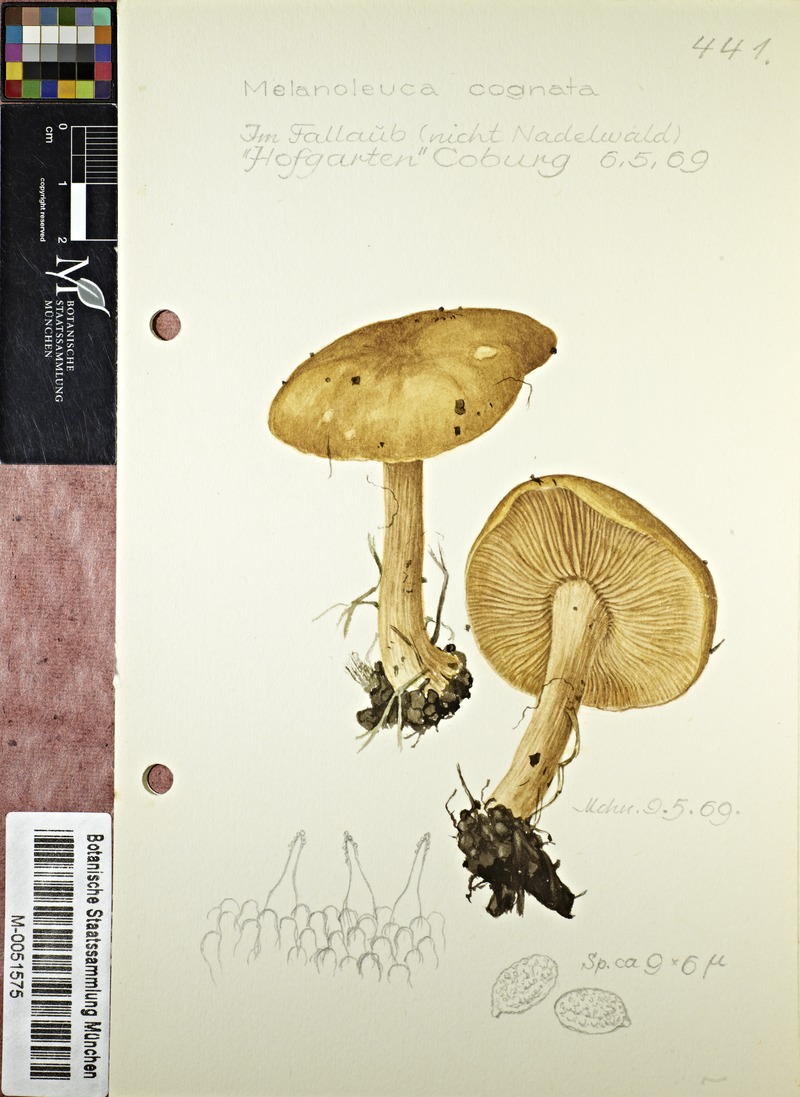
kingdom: Fungi
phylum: Basidiomycota
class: Agaricomycetes
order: Agaricales
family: Tricholomataceae
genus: Melanoleuca
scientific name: Melanoleuca cognata
